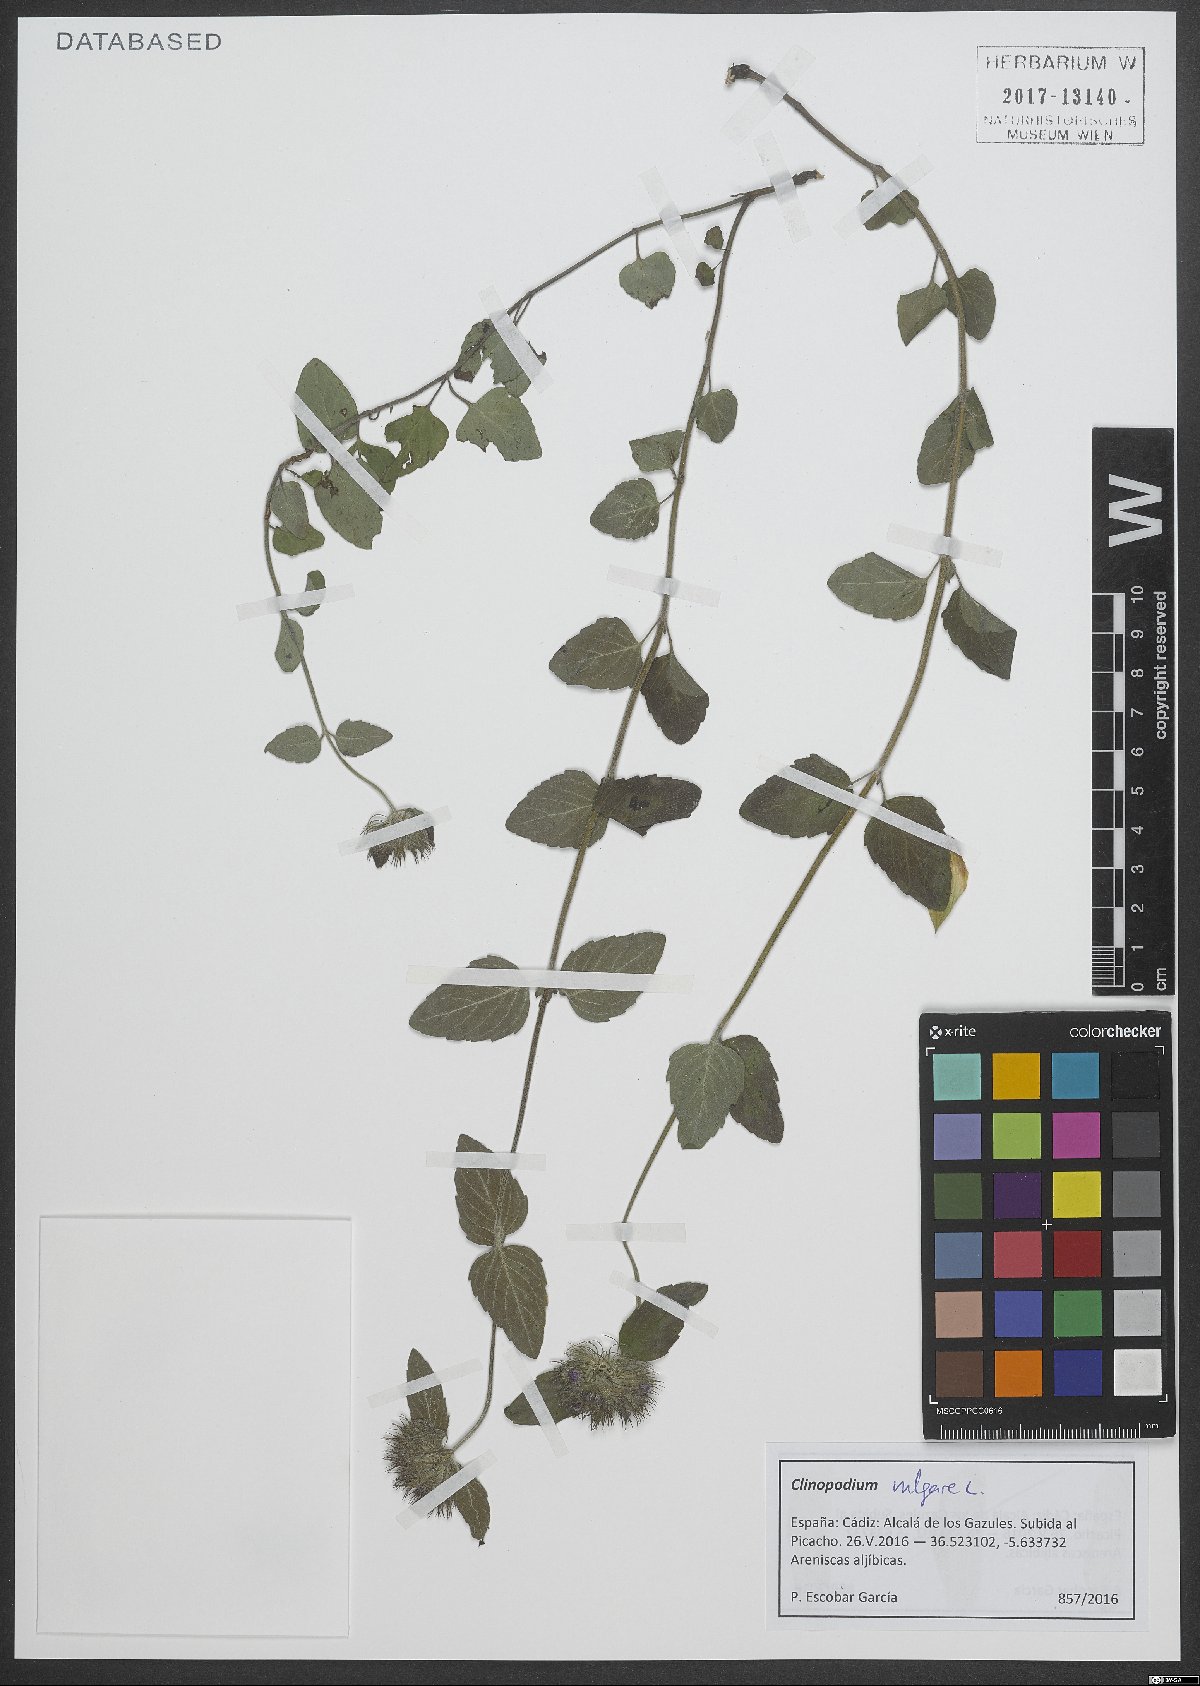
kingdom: Plantae
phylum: Tracheophyta
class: Magnoliopsida
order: Lamiales
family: Lamiaceae
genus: Clinopodium
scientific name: Clinopodium vulgare
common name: Wild basil
